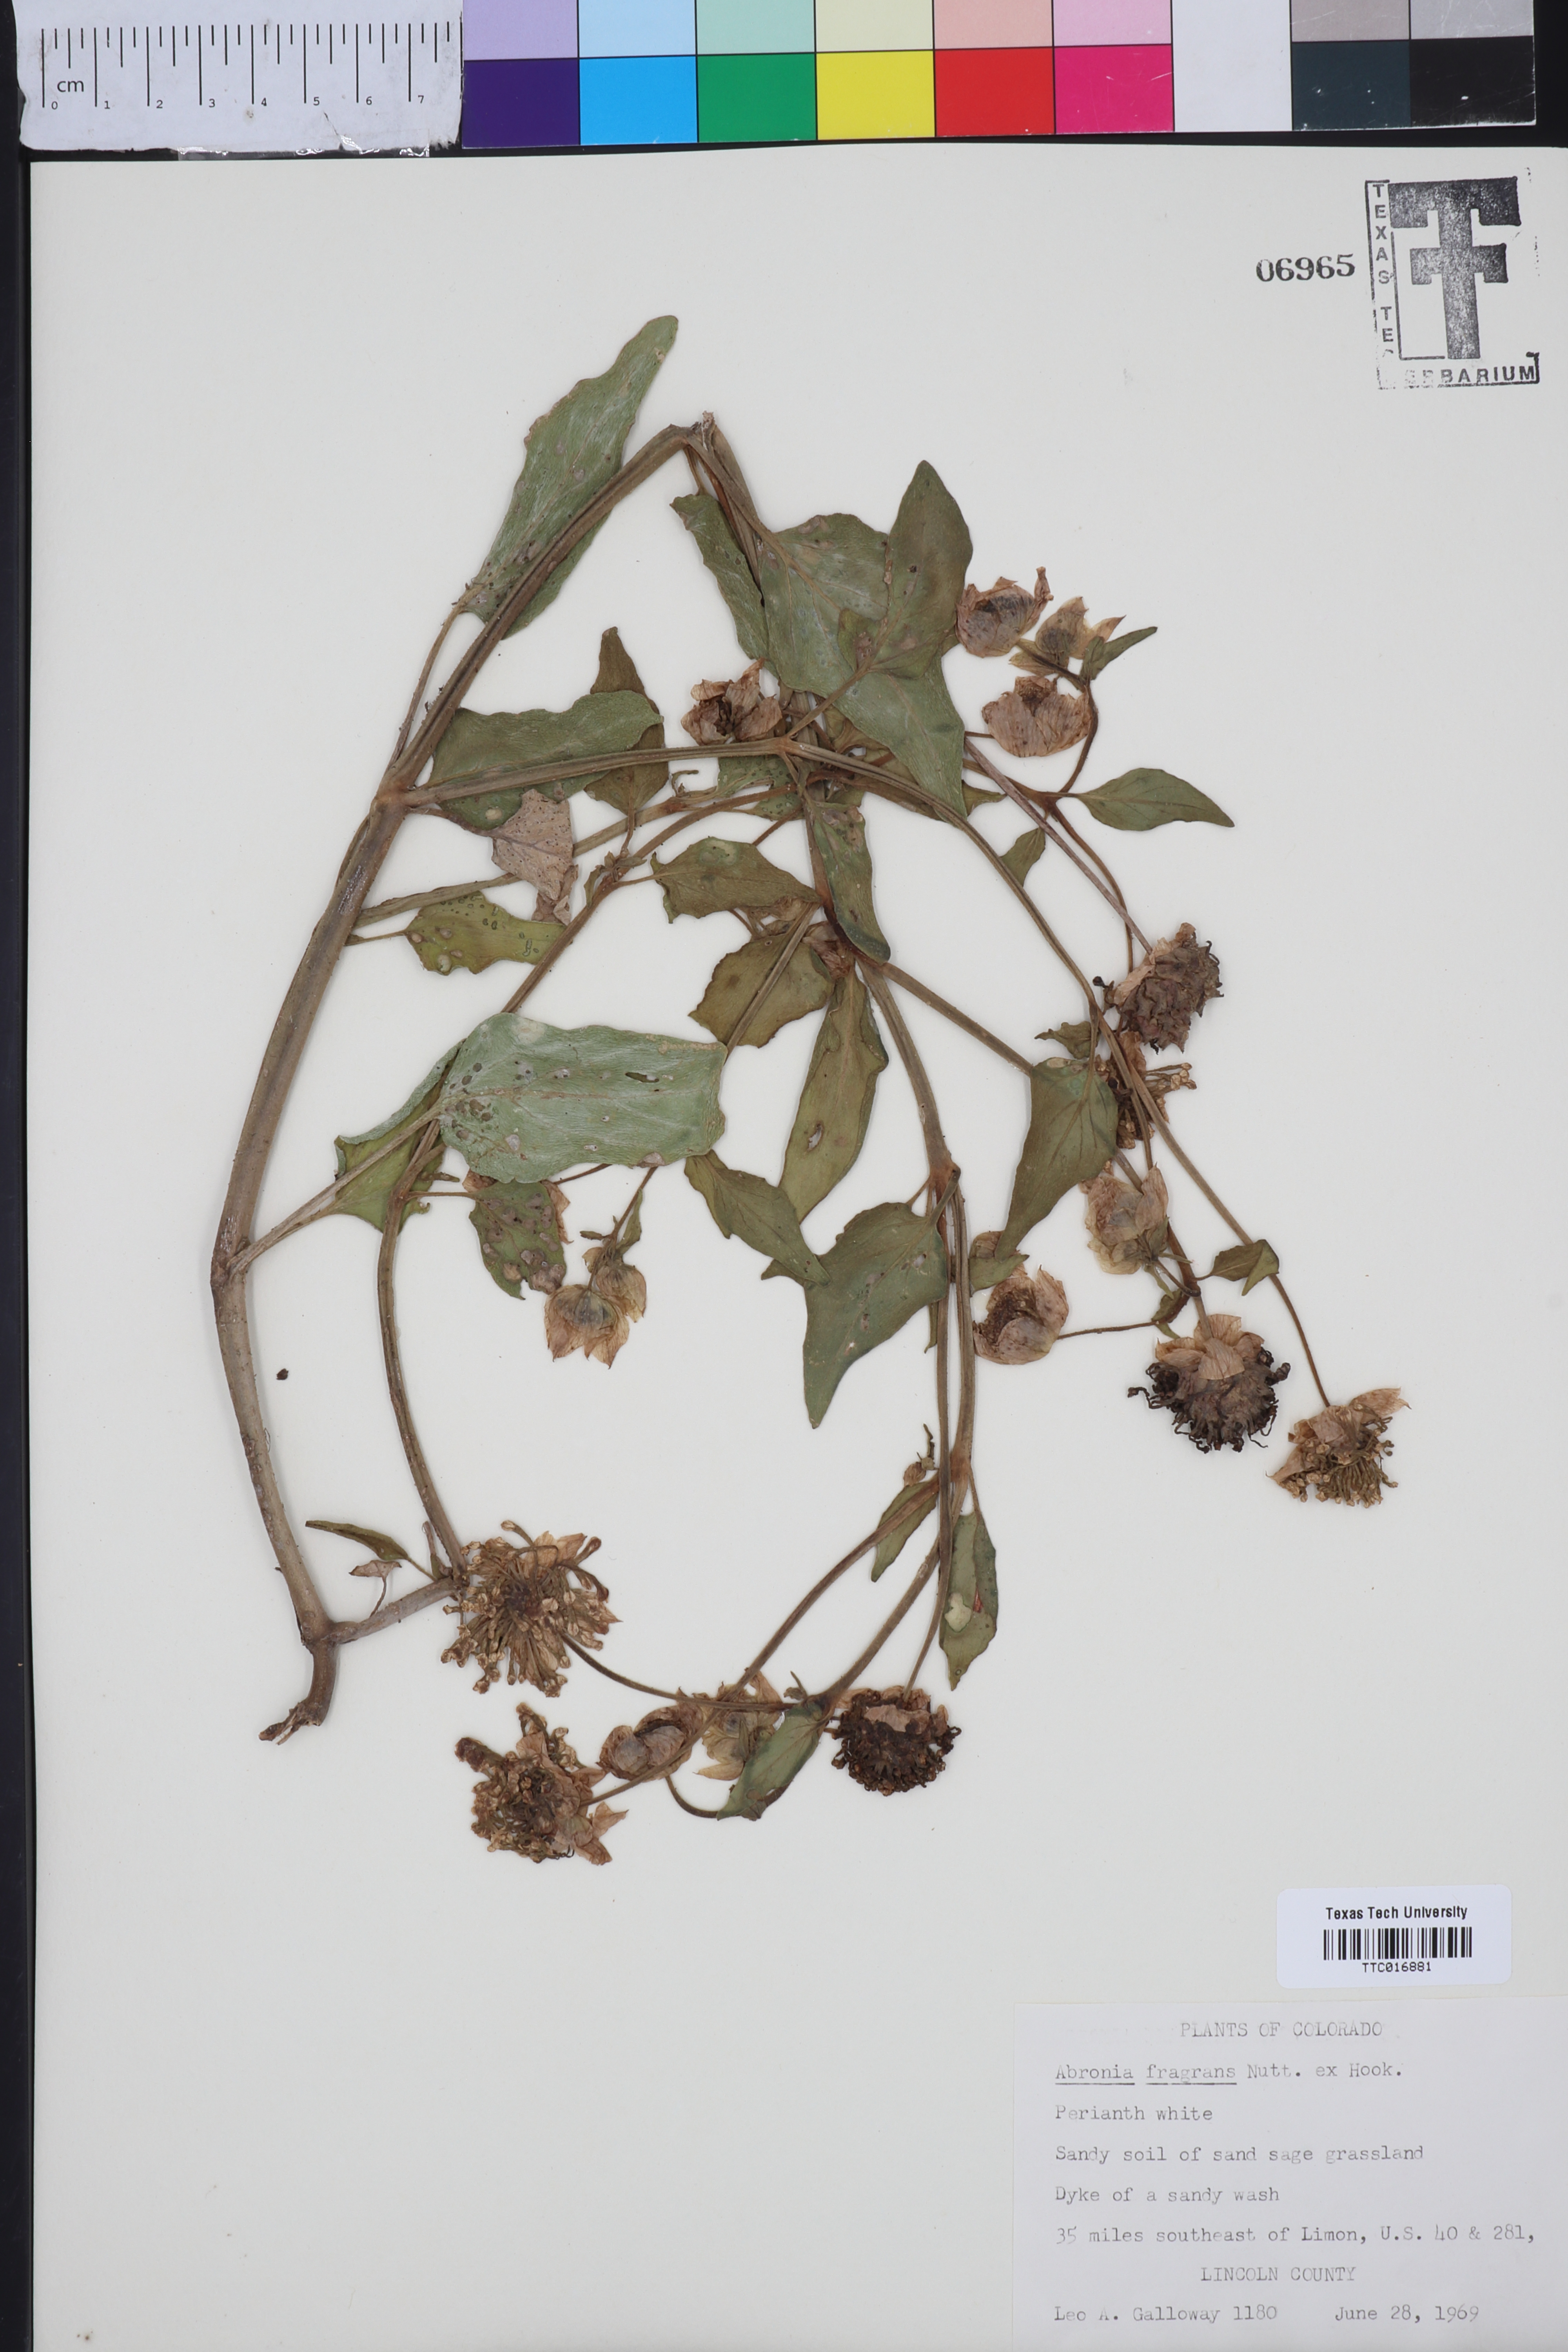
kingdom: Plantae
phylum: Tracheophyta
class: Magnoliopsida
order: Caryophyllales
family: Nyctaginaceae
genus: Abronia
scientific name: Abronia fragrans
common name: Fragrant sand-verbena
